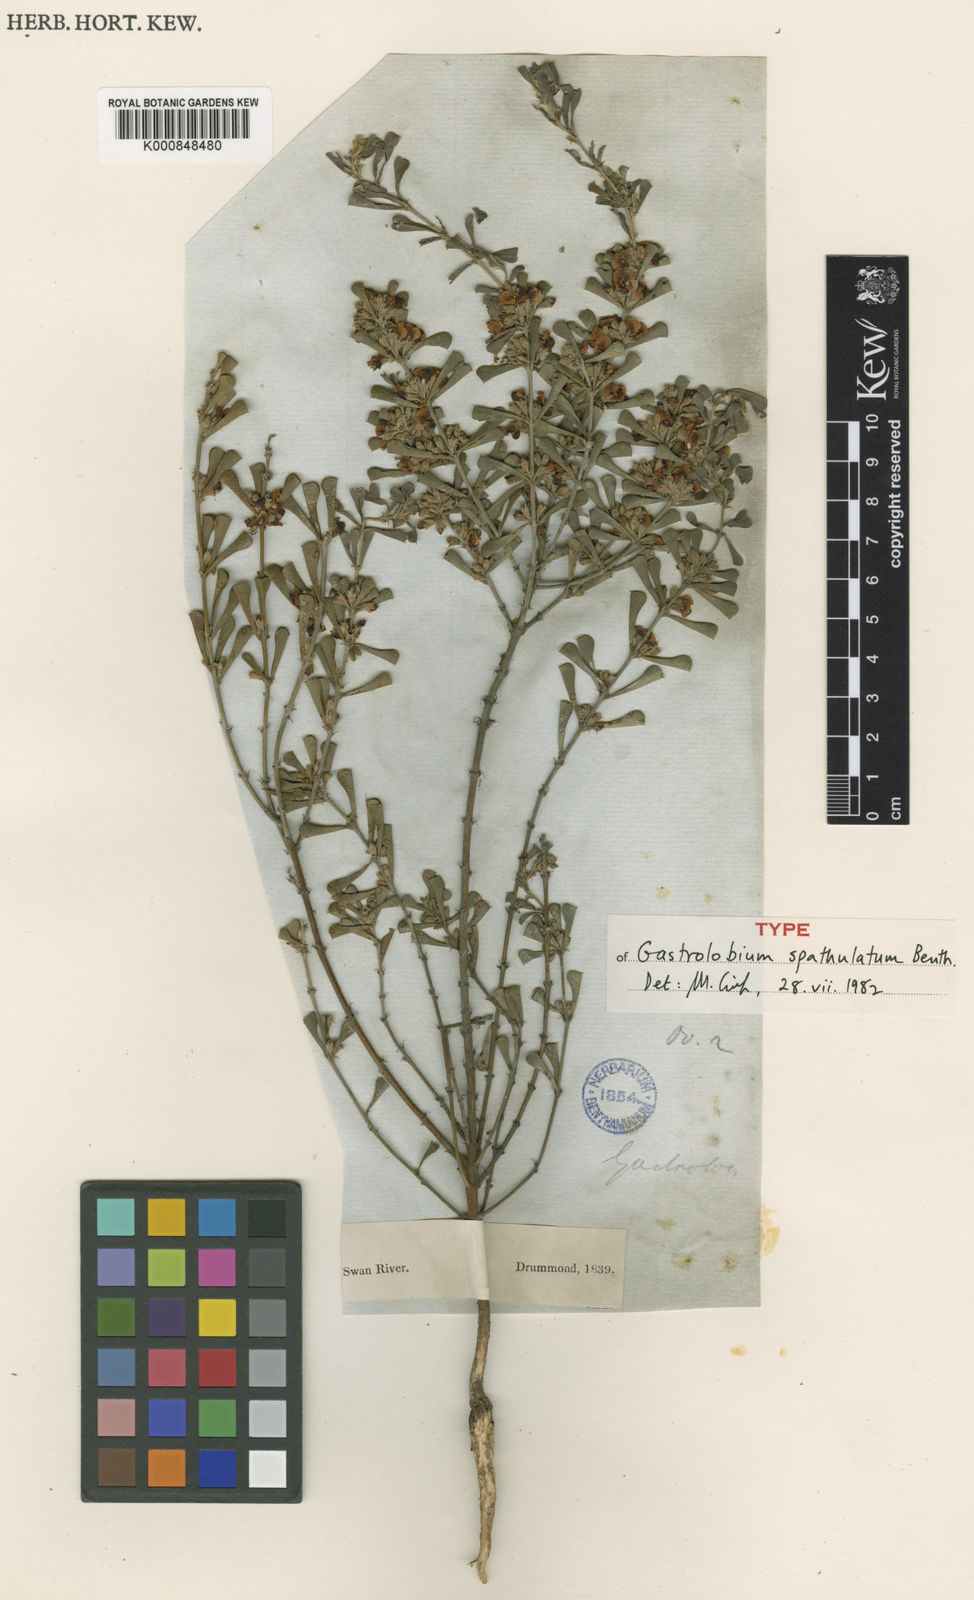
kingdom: Plantae
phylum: Tracheophyta
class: Magnoliopsida
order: Fabales
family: Fabaceae
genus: Gastrolobium
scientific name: Gastrolobium spathulatum
